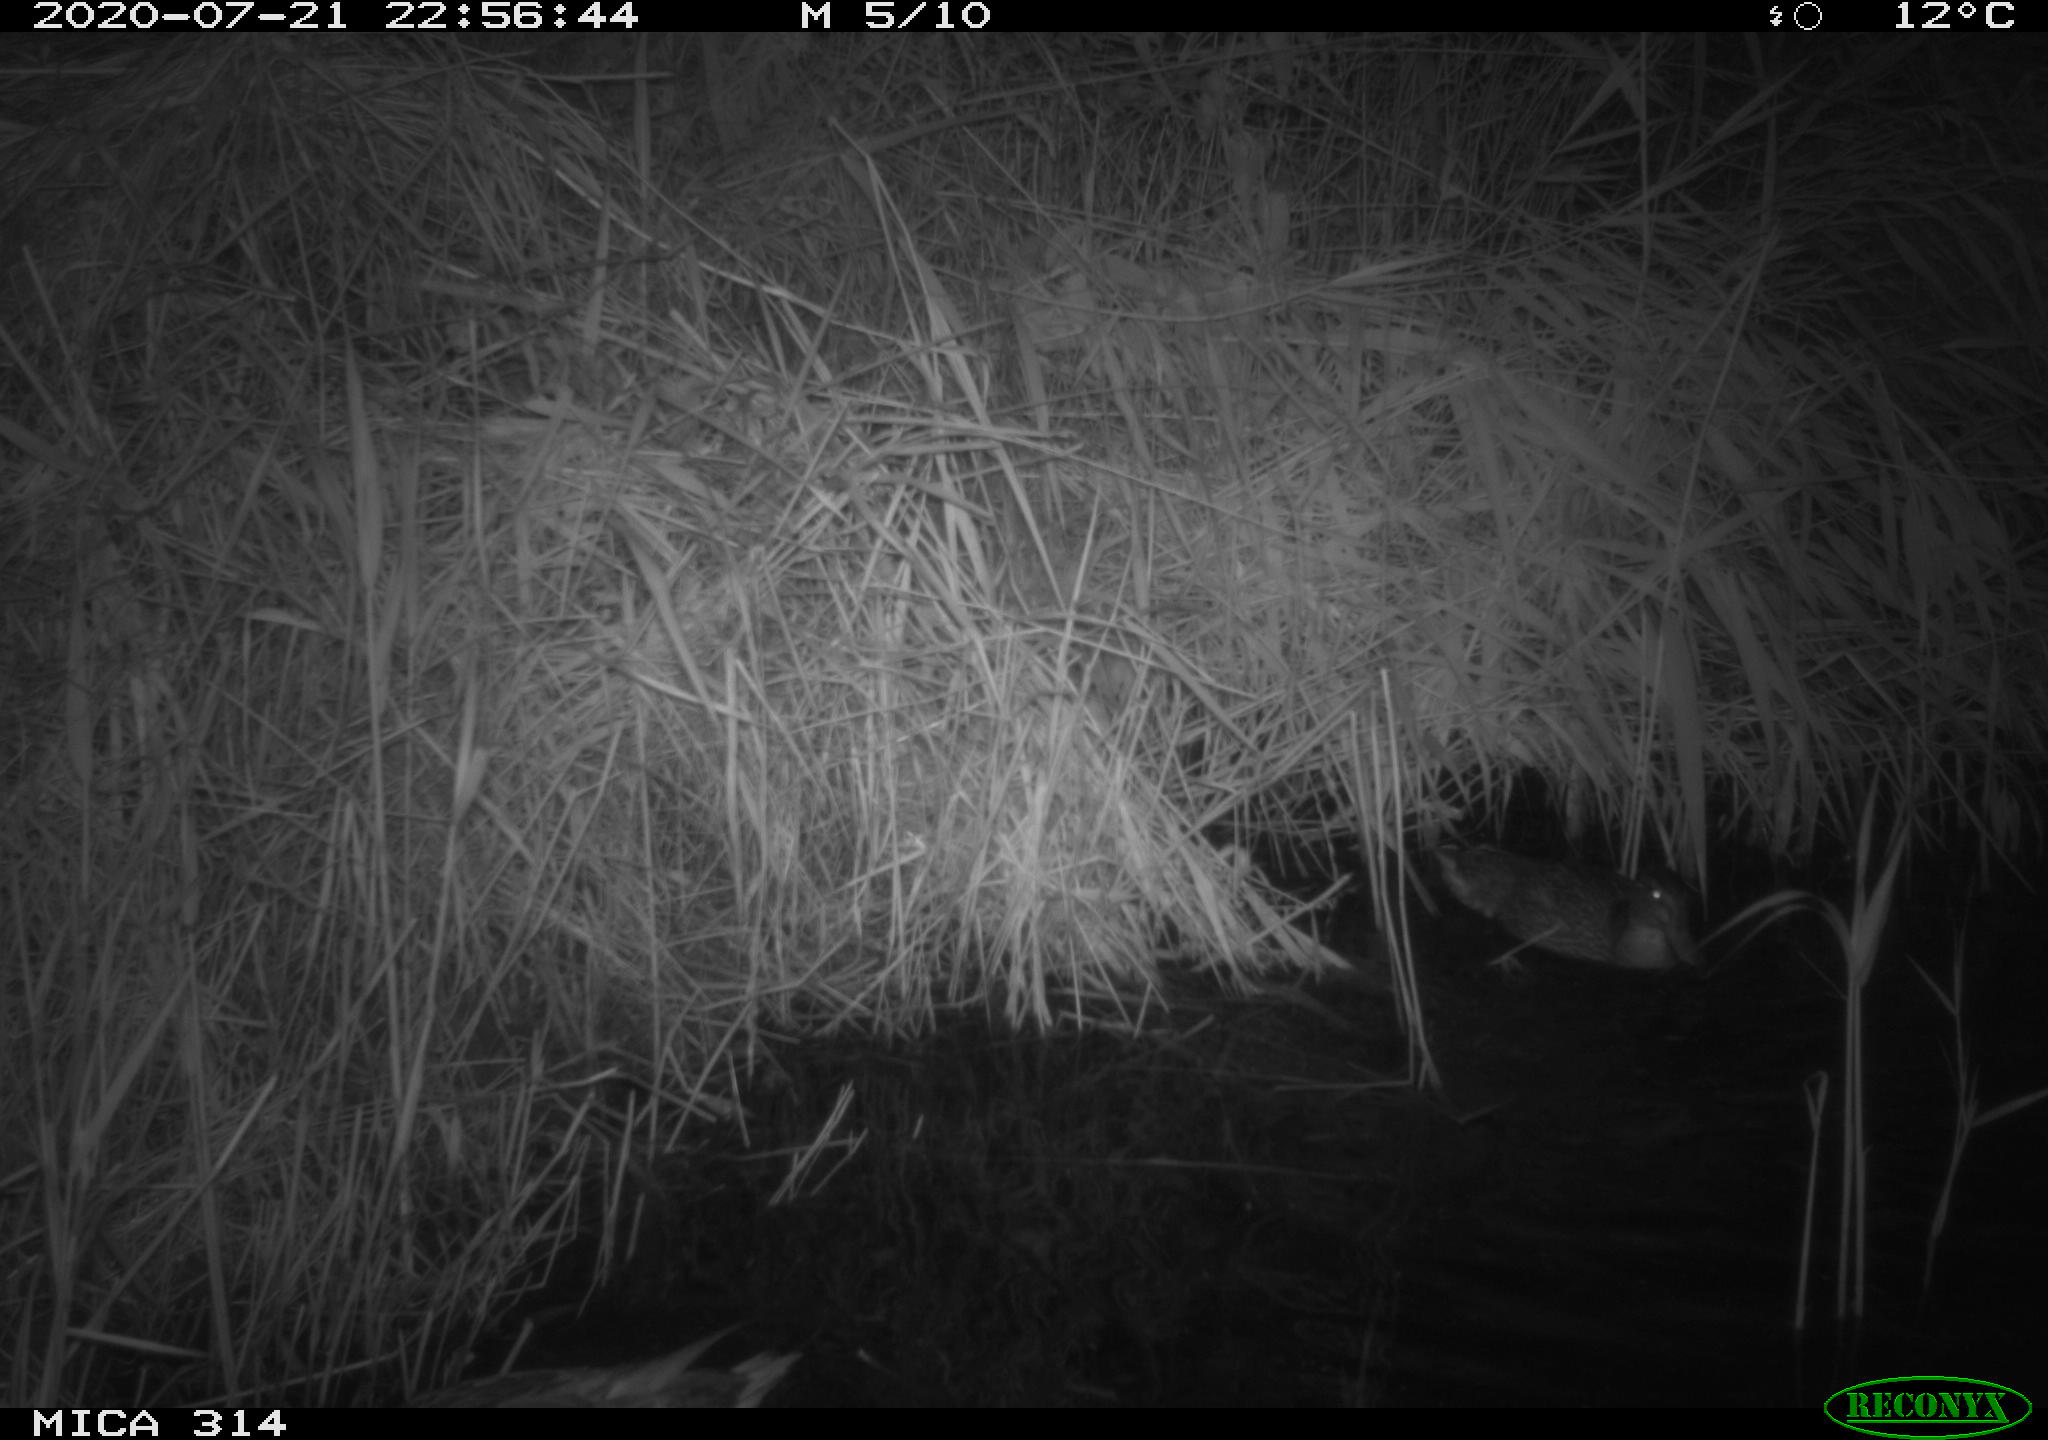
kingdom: Animalia
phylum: Chordata
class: Aves
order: Anseriformes
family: Anatidae
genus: Anas
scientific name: Anas platyrhynchos
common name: Mallard
